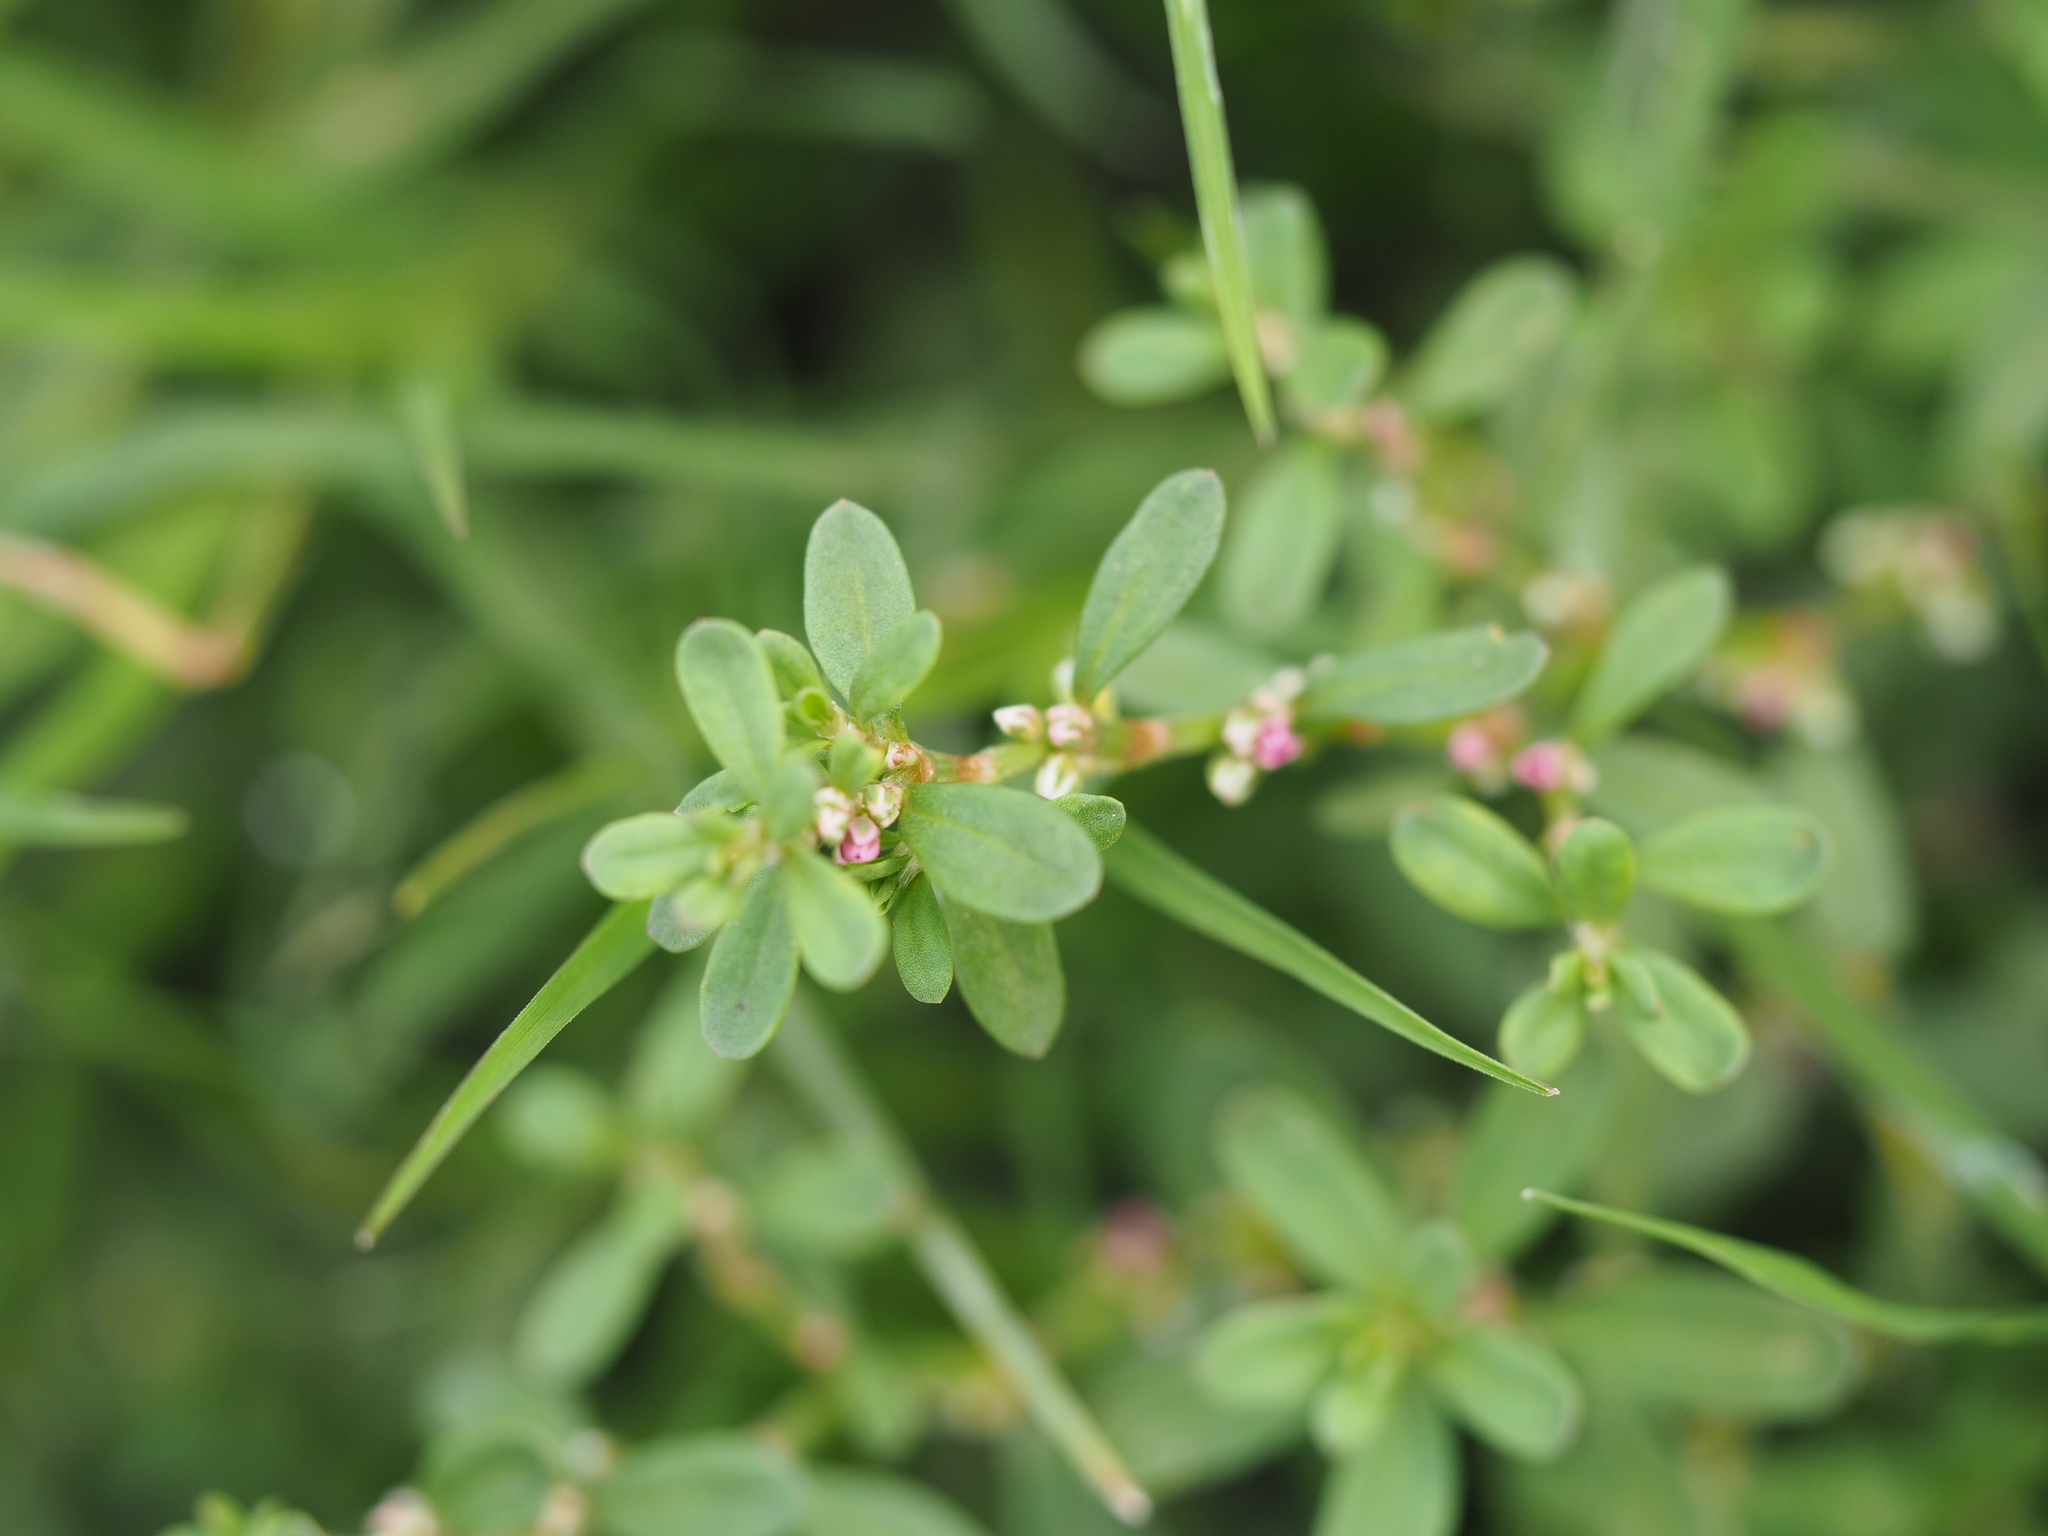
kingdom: Plantae
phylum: Tracheophyta
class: Magnoliopsida
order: Caryophyllales
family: Polygonaceae
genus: Polygonum
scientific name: Polygonum plebeium
